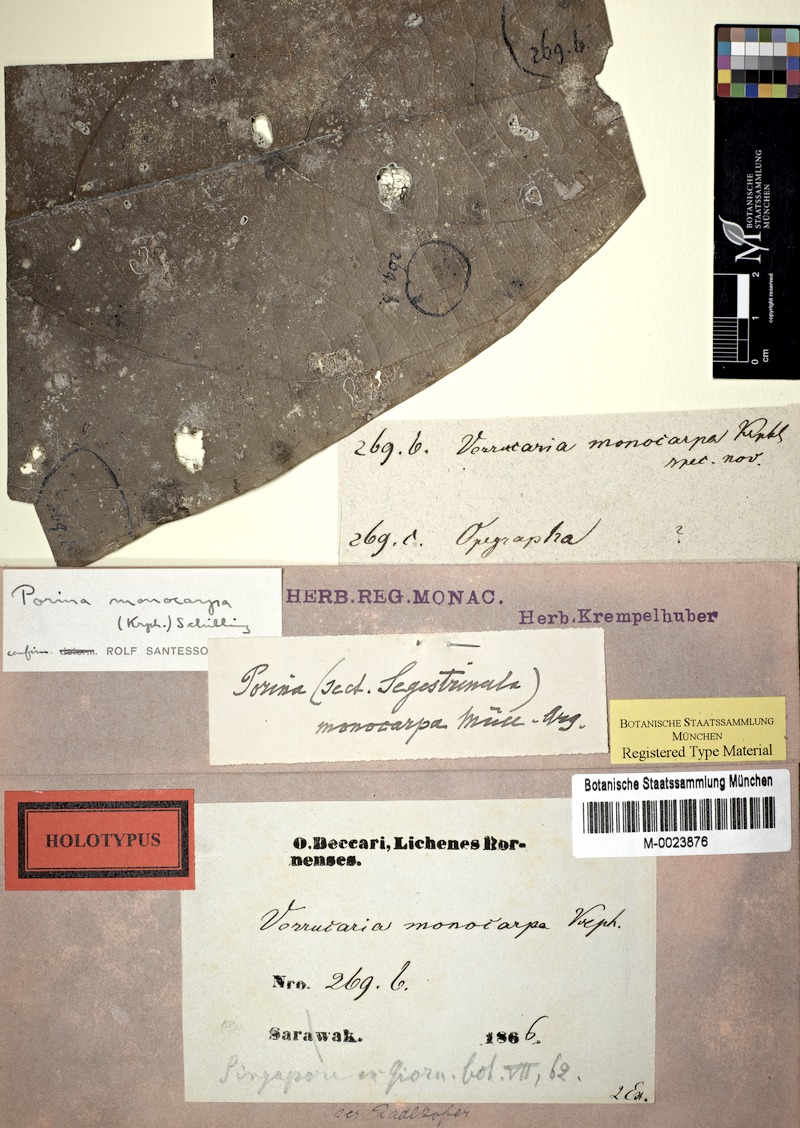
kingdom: Fungi
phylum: Ascomycota
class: Lecanoromycetes
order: Pertusariales
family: Pertusariaceae
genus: Porina
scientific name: Porina
